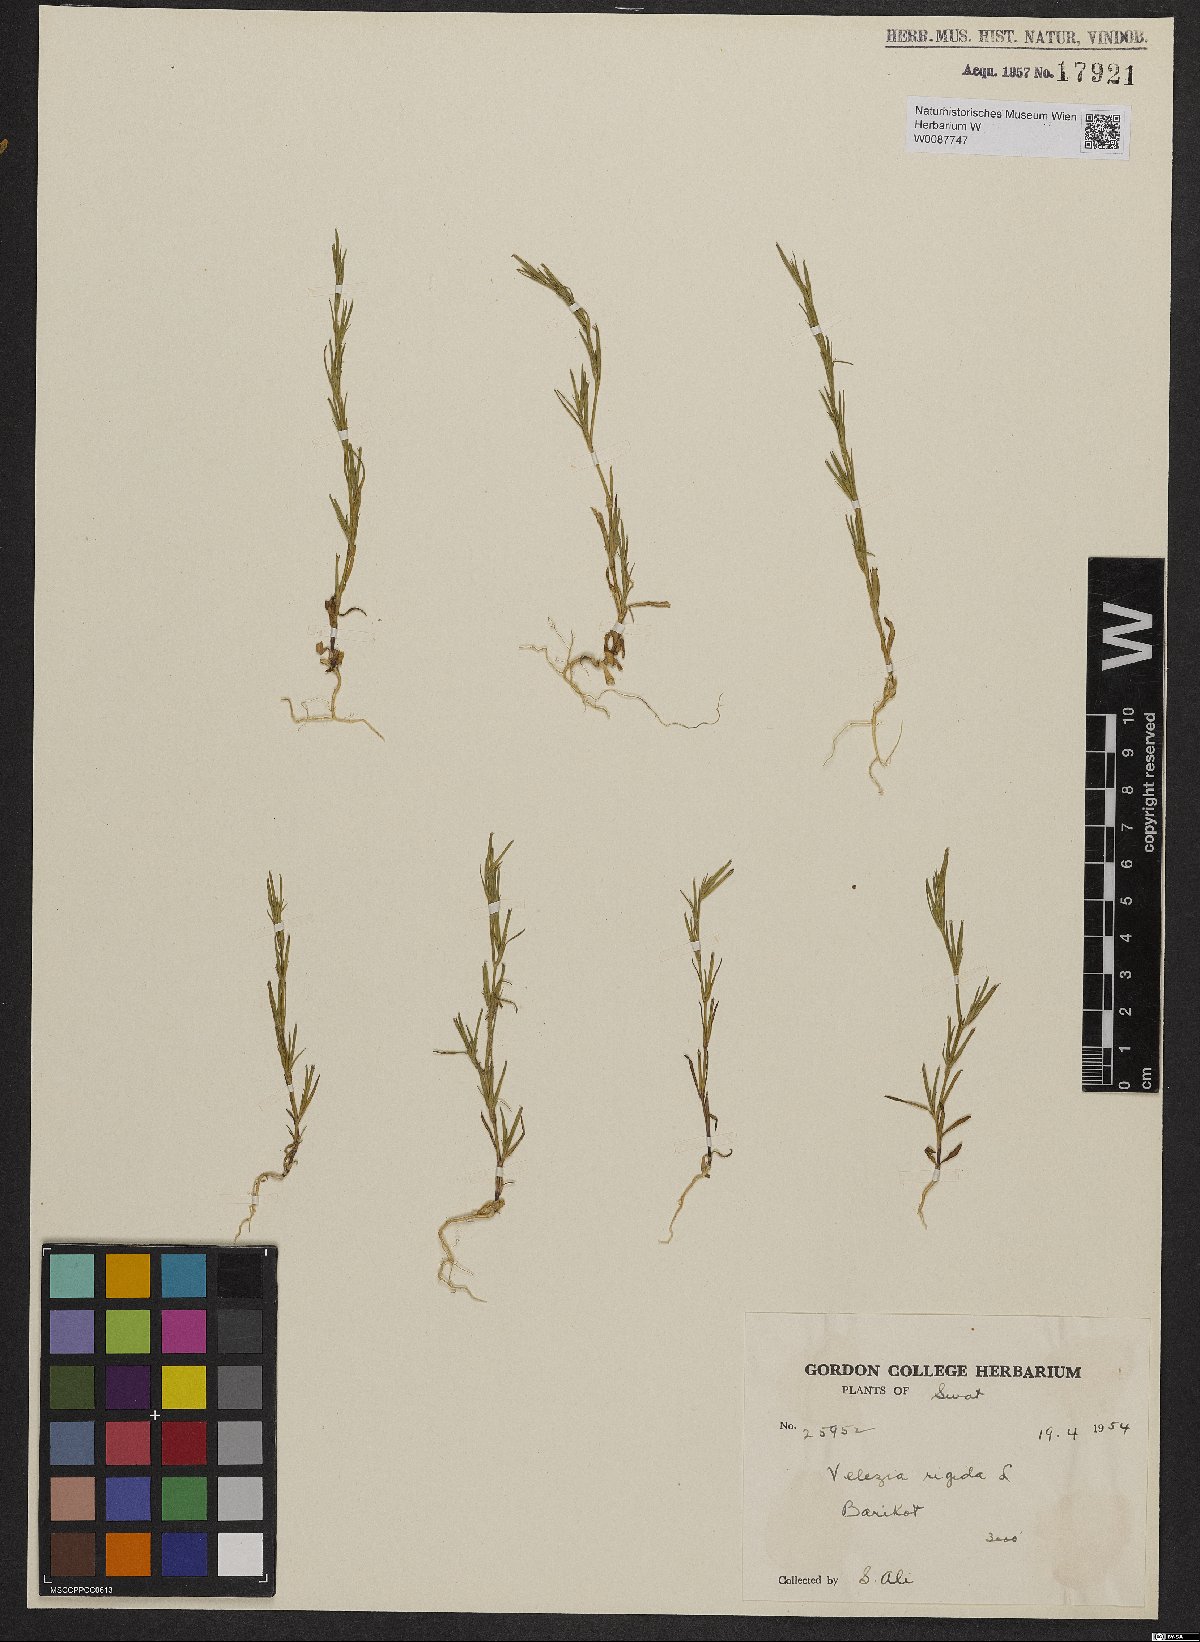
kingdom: Plantae
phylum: Tracheophyta
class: Magnoliopsida
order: Caryophyllales
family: Caryophyllaceae
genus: Dianthus
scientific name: Dianthus nudiflorus
